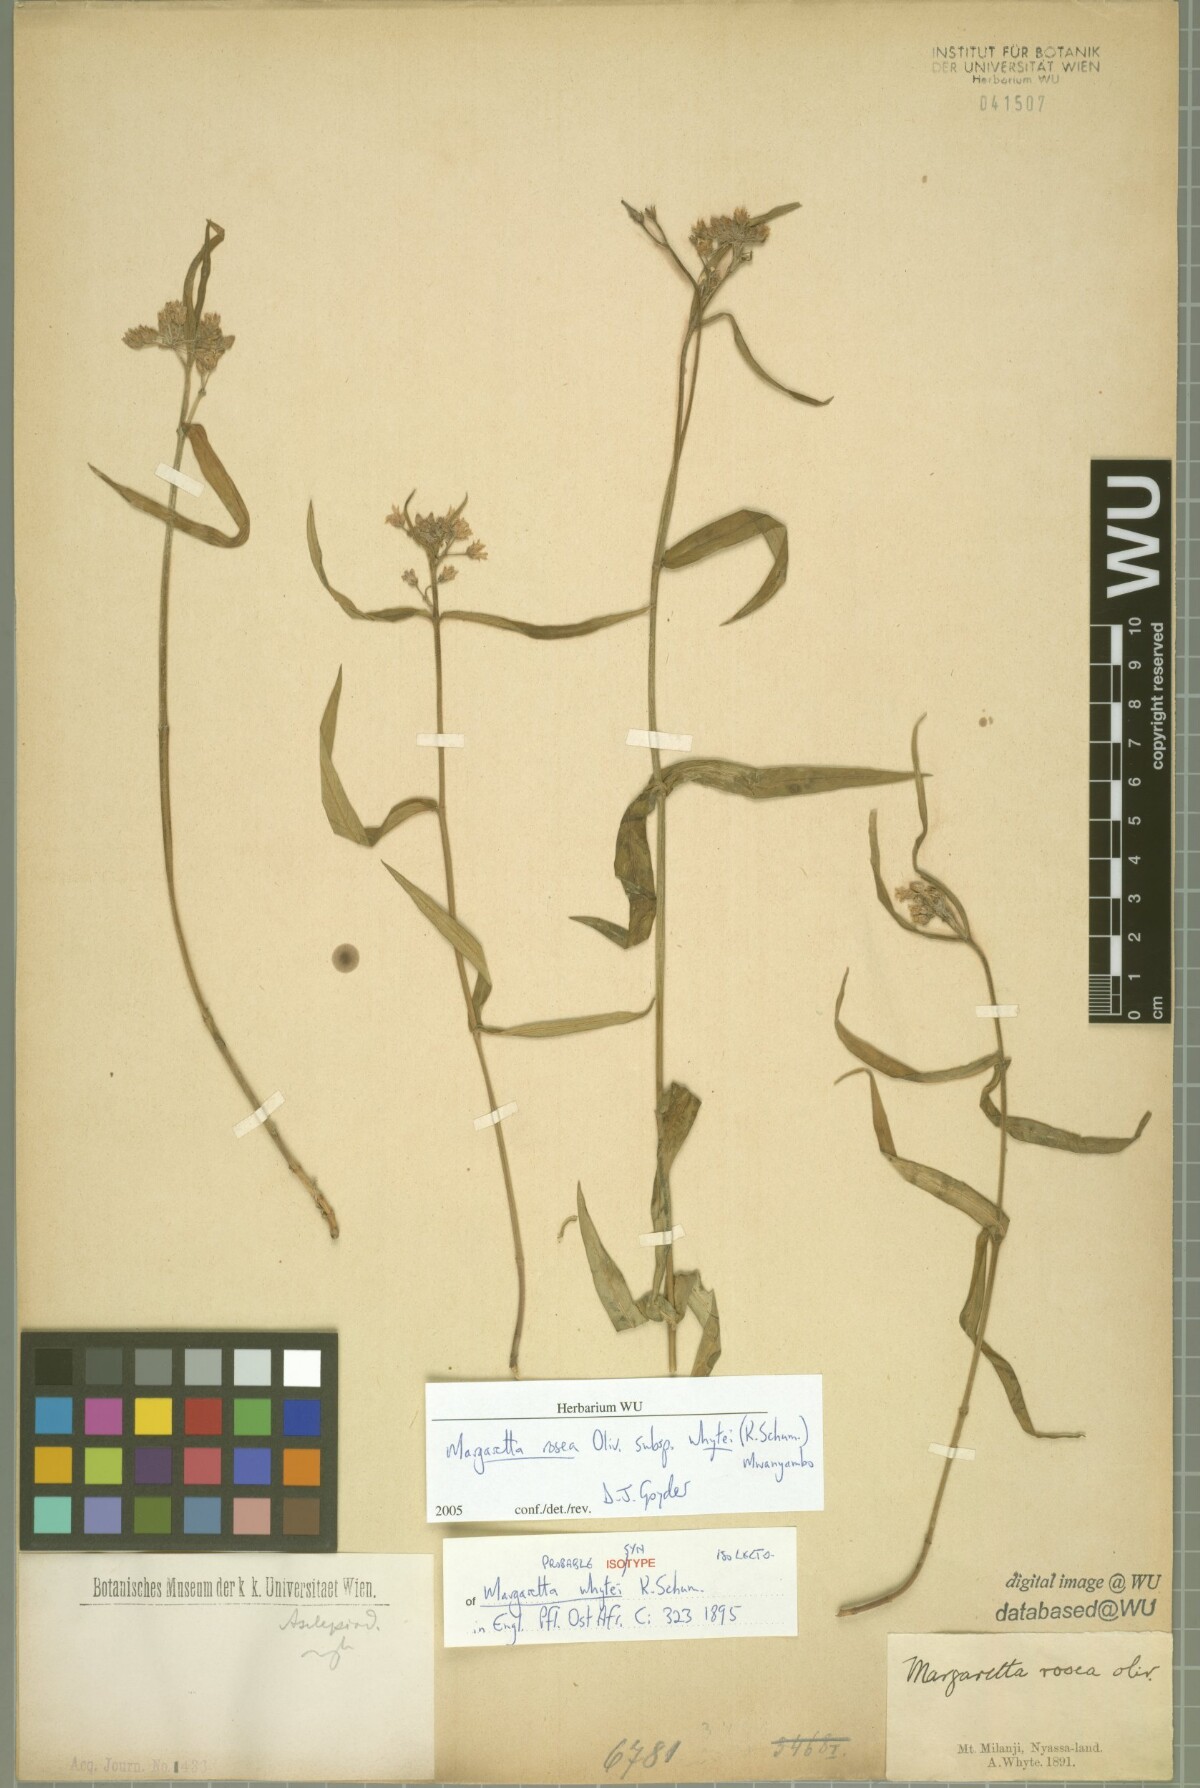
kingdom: Plantae
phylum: Tracheophyta
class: Magnoliopsida
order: Gentianales
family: Apocynaceae
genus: Margaretta
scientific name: Margaretta rosea
